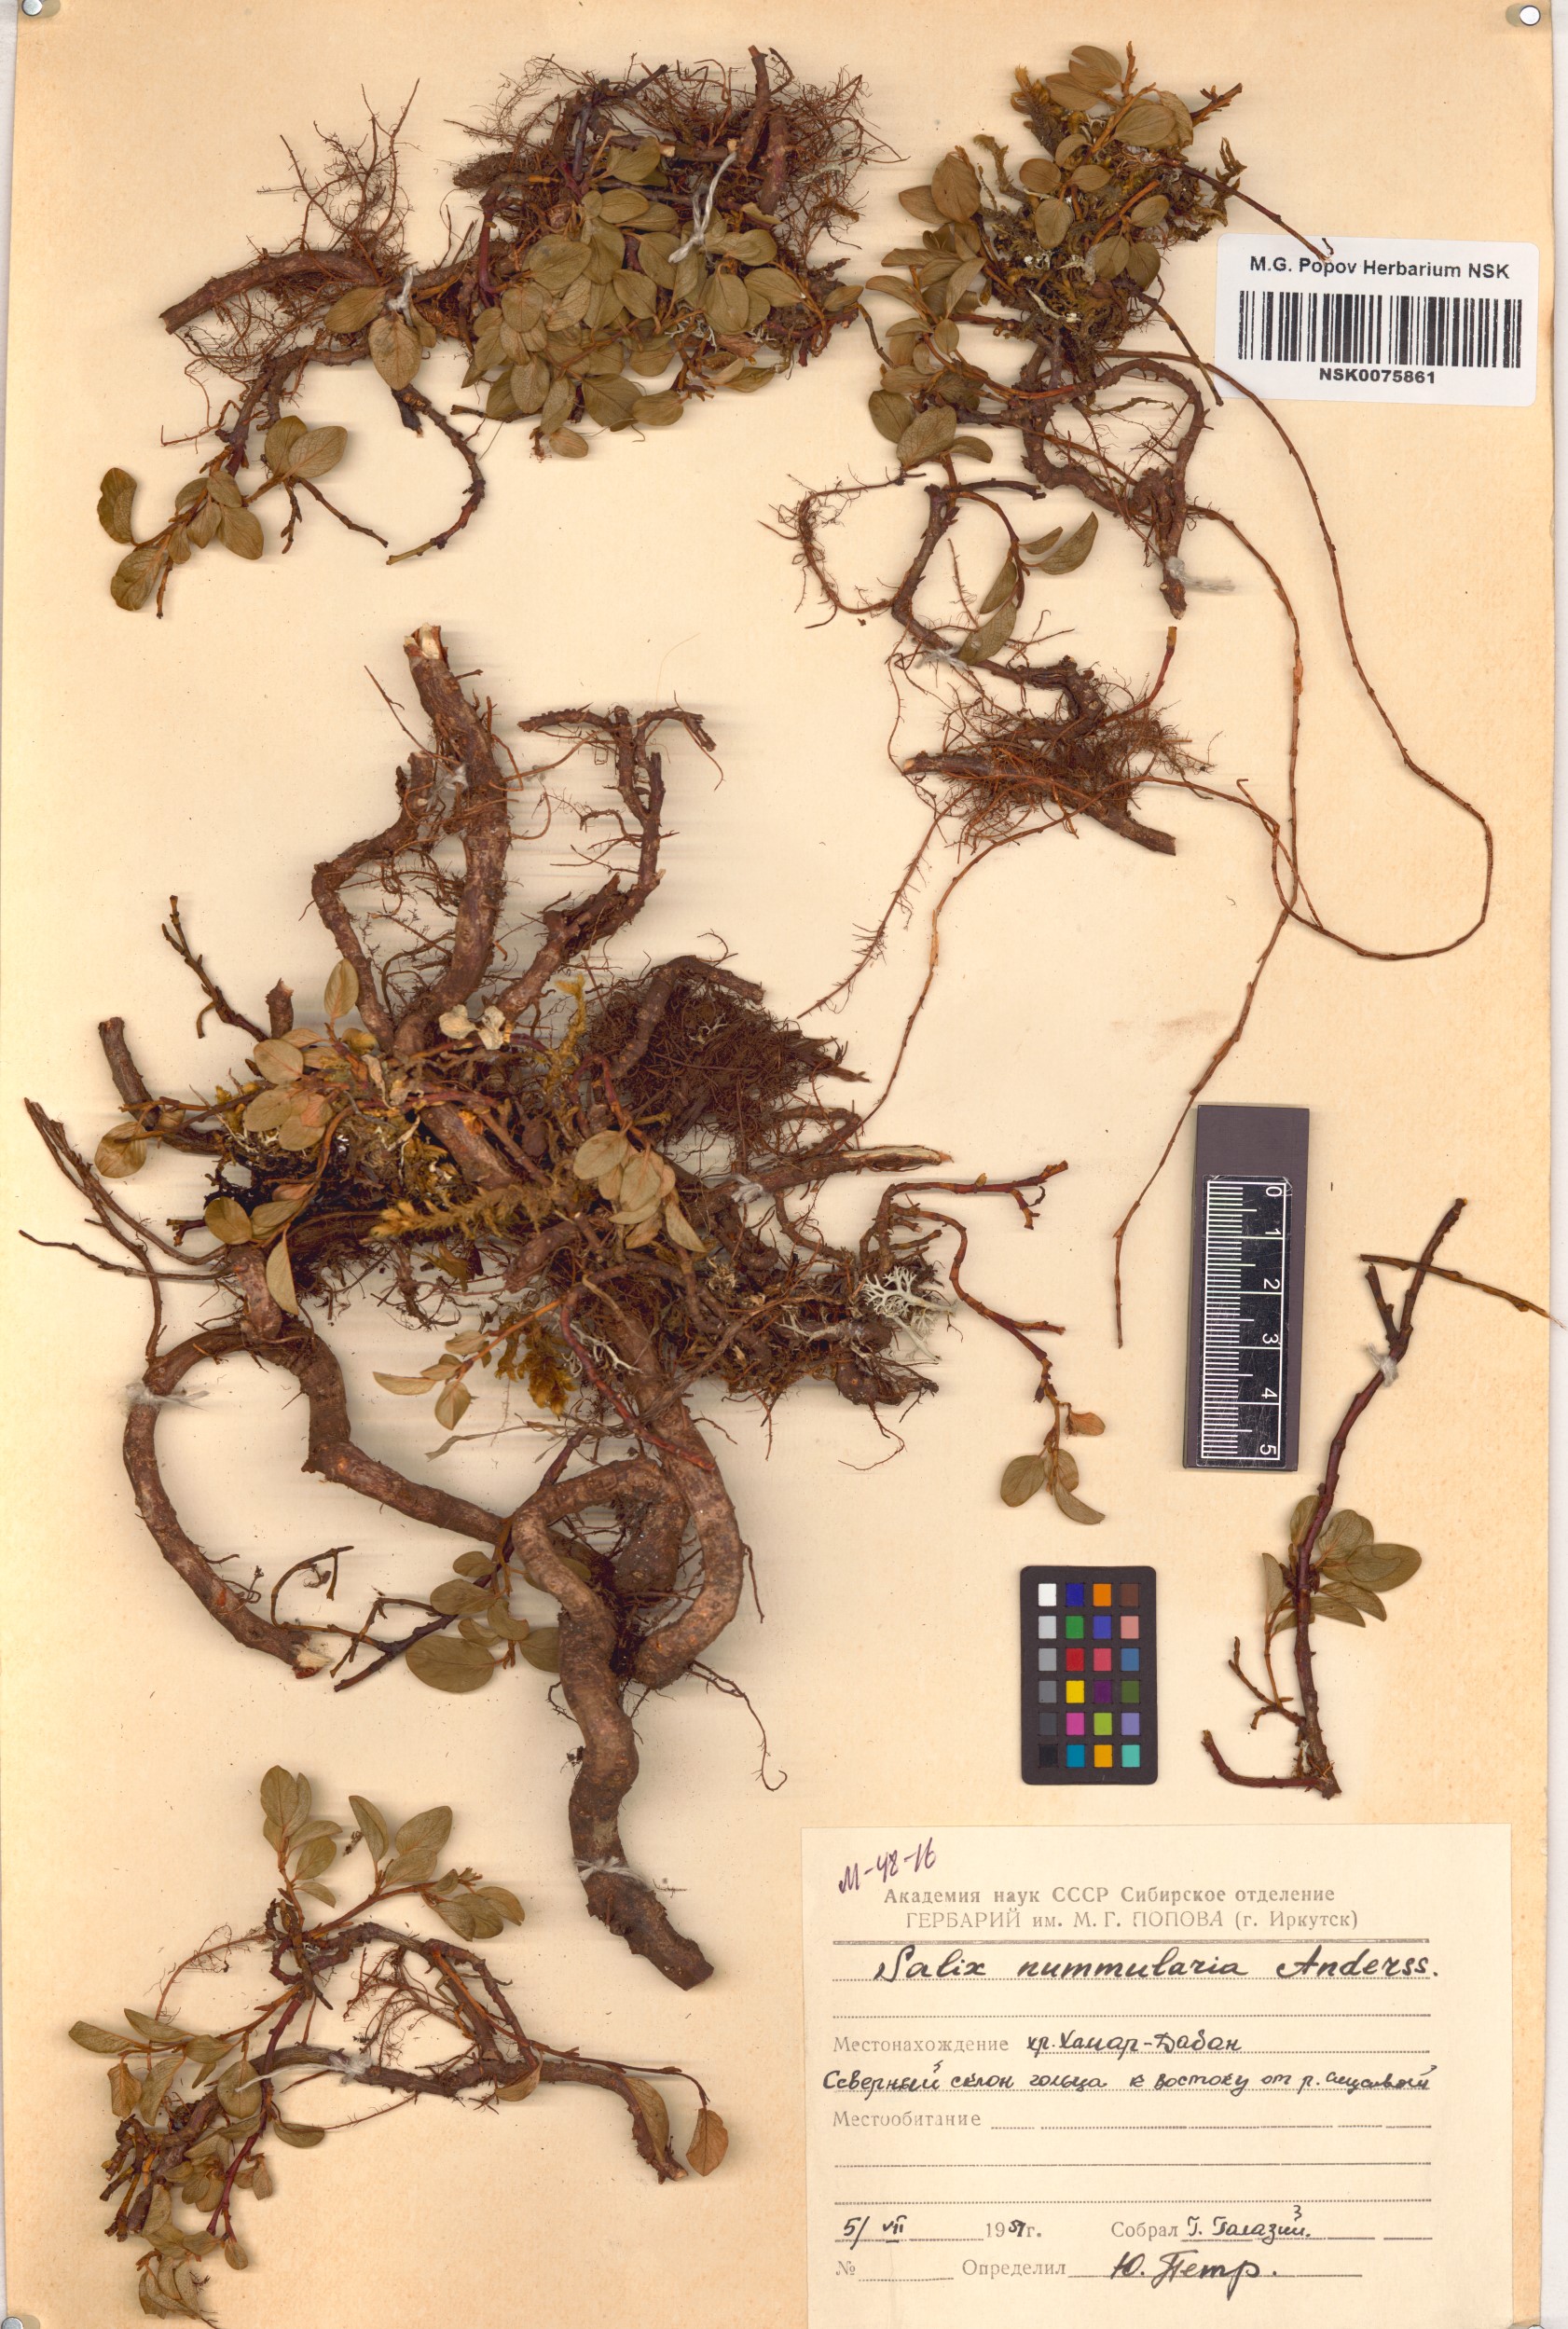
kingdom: Plantae
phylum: Tracheophyta
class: Magnoliopsida
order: Malpighiales
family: Salicaceae
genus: Salix
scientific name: Salix nummularia
